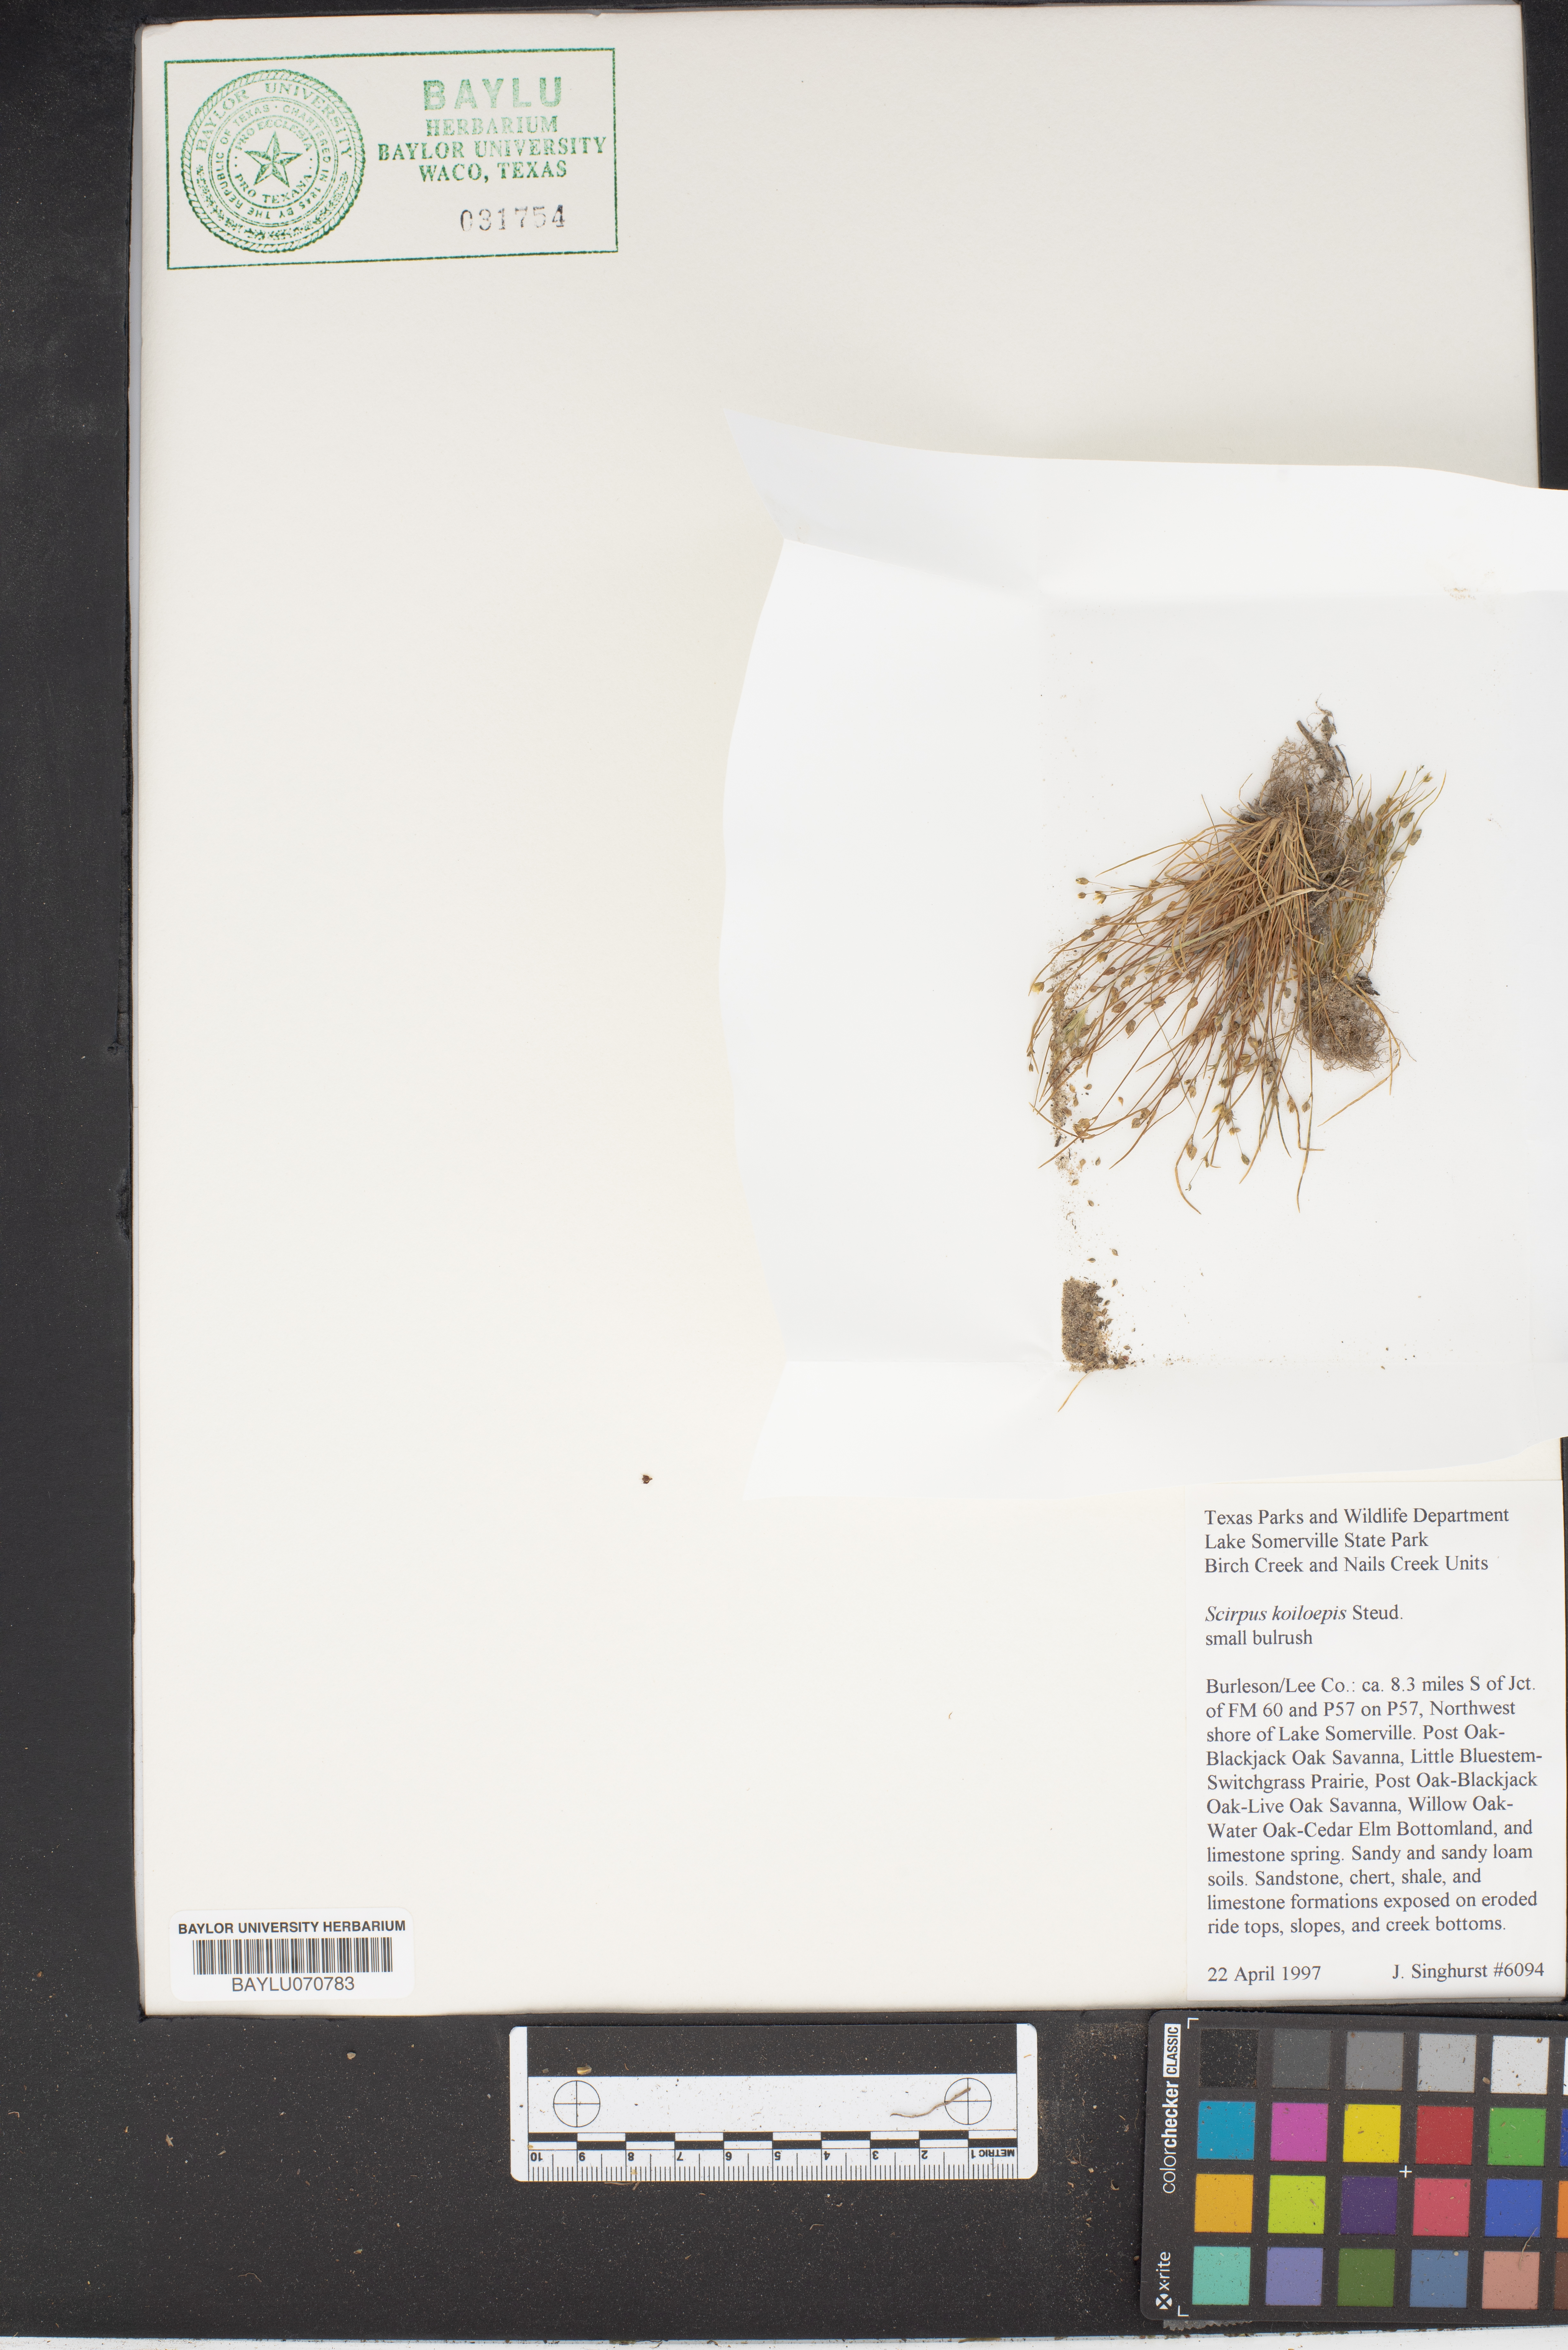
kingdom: Plantae
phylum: Tracheophyta
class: Liliopsida
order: Poales
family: Cyperaceae
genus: Isolepis
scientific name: Isolepis carinata
